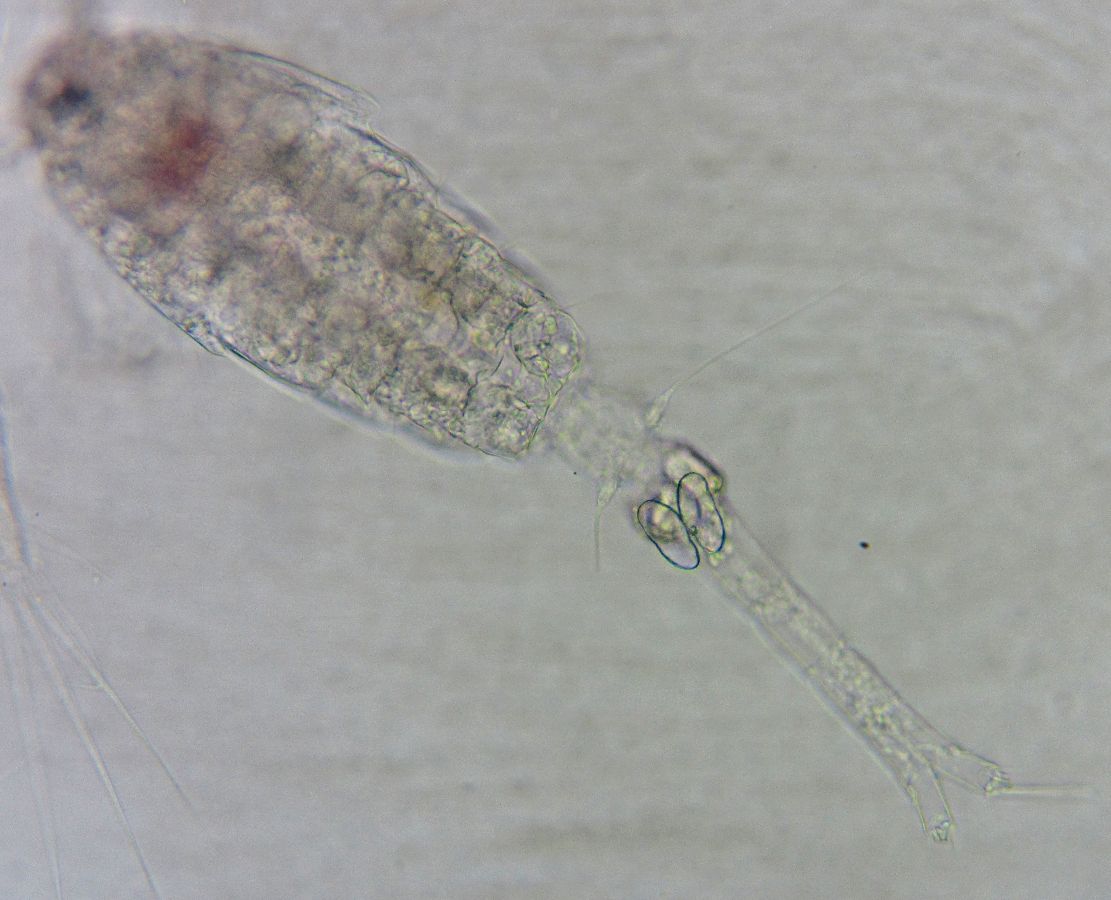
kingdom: Animalia
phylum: Arthropoda
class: Copepoda
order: Cyclopoida
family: Oithonidae
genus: Oithona
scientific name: Oithona similis
